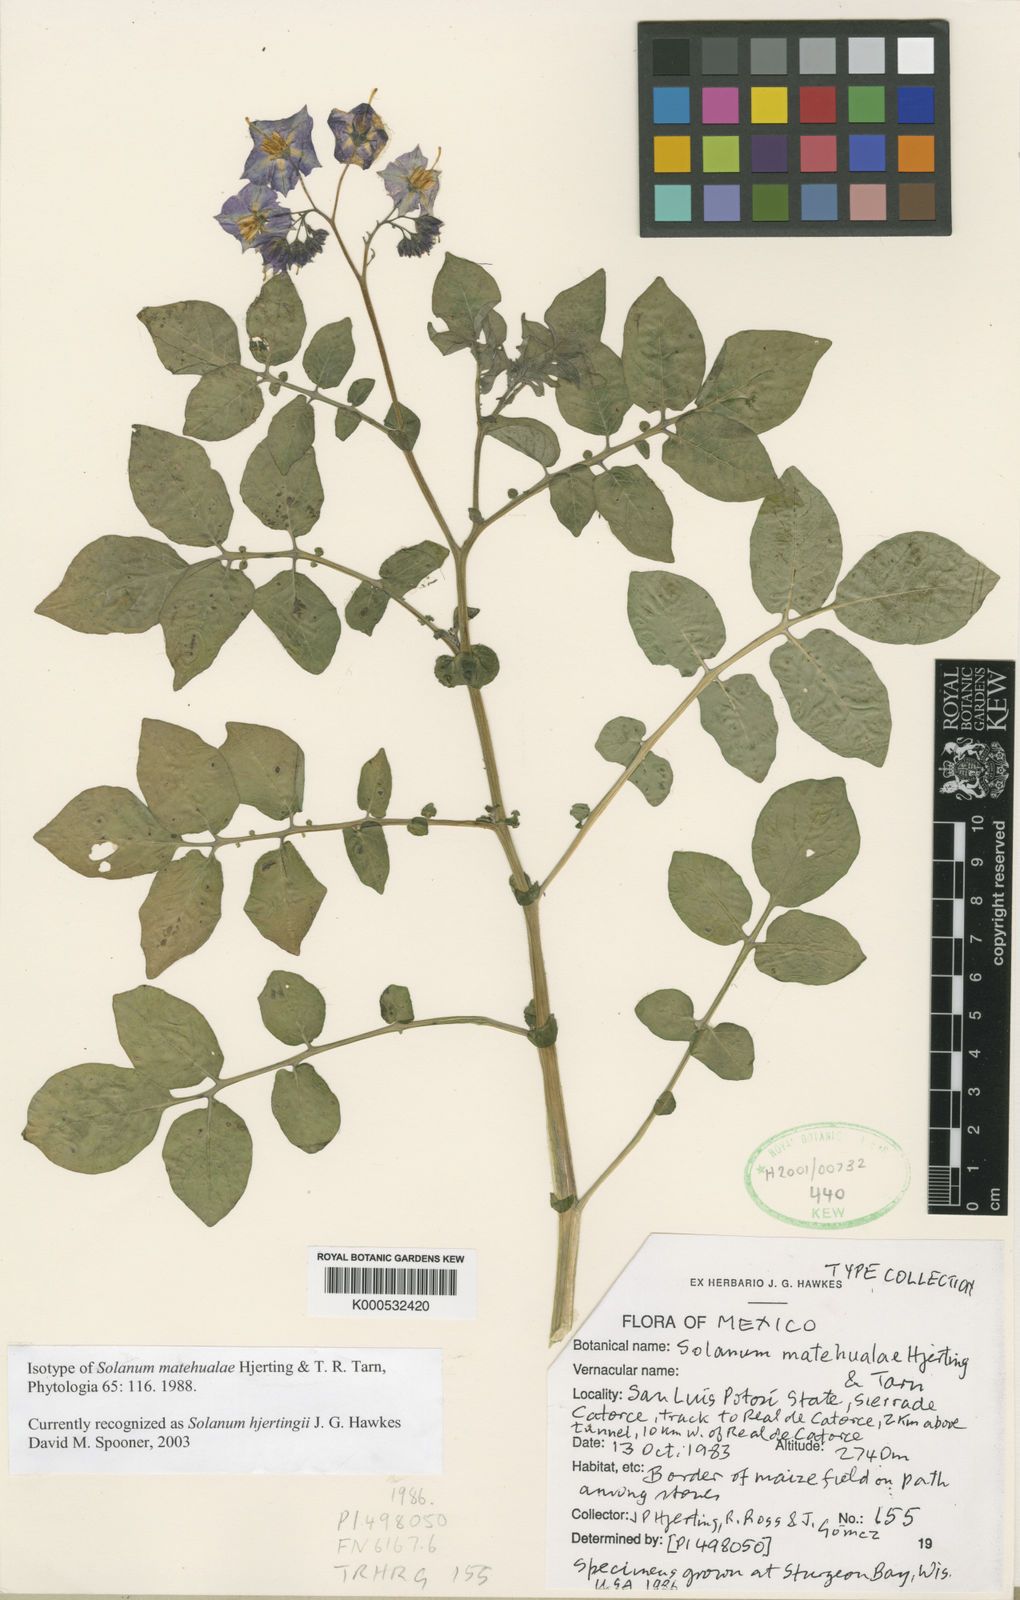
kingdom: Plantae
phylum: Tracheophyta
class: Magnoliopsida
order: Solanales
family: Solanaceae
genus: Solanum
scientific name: Solanum hjertingii
